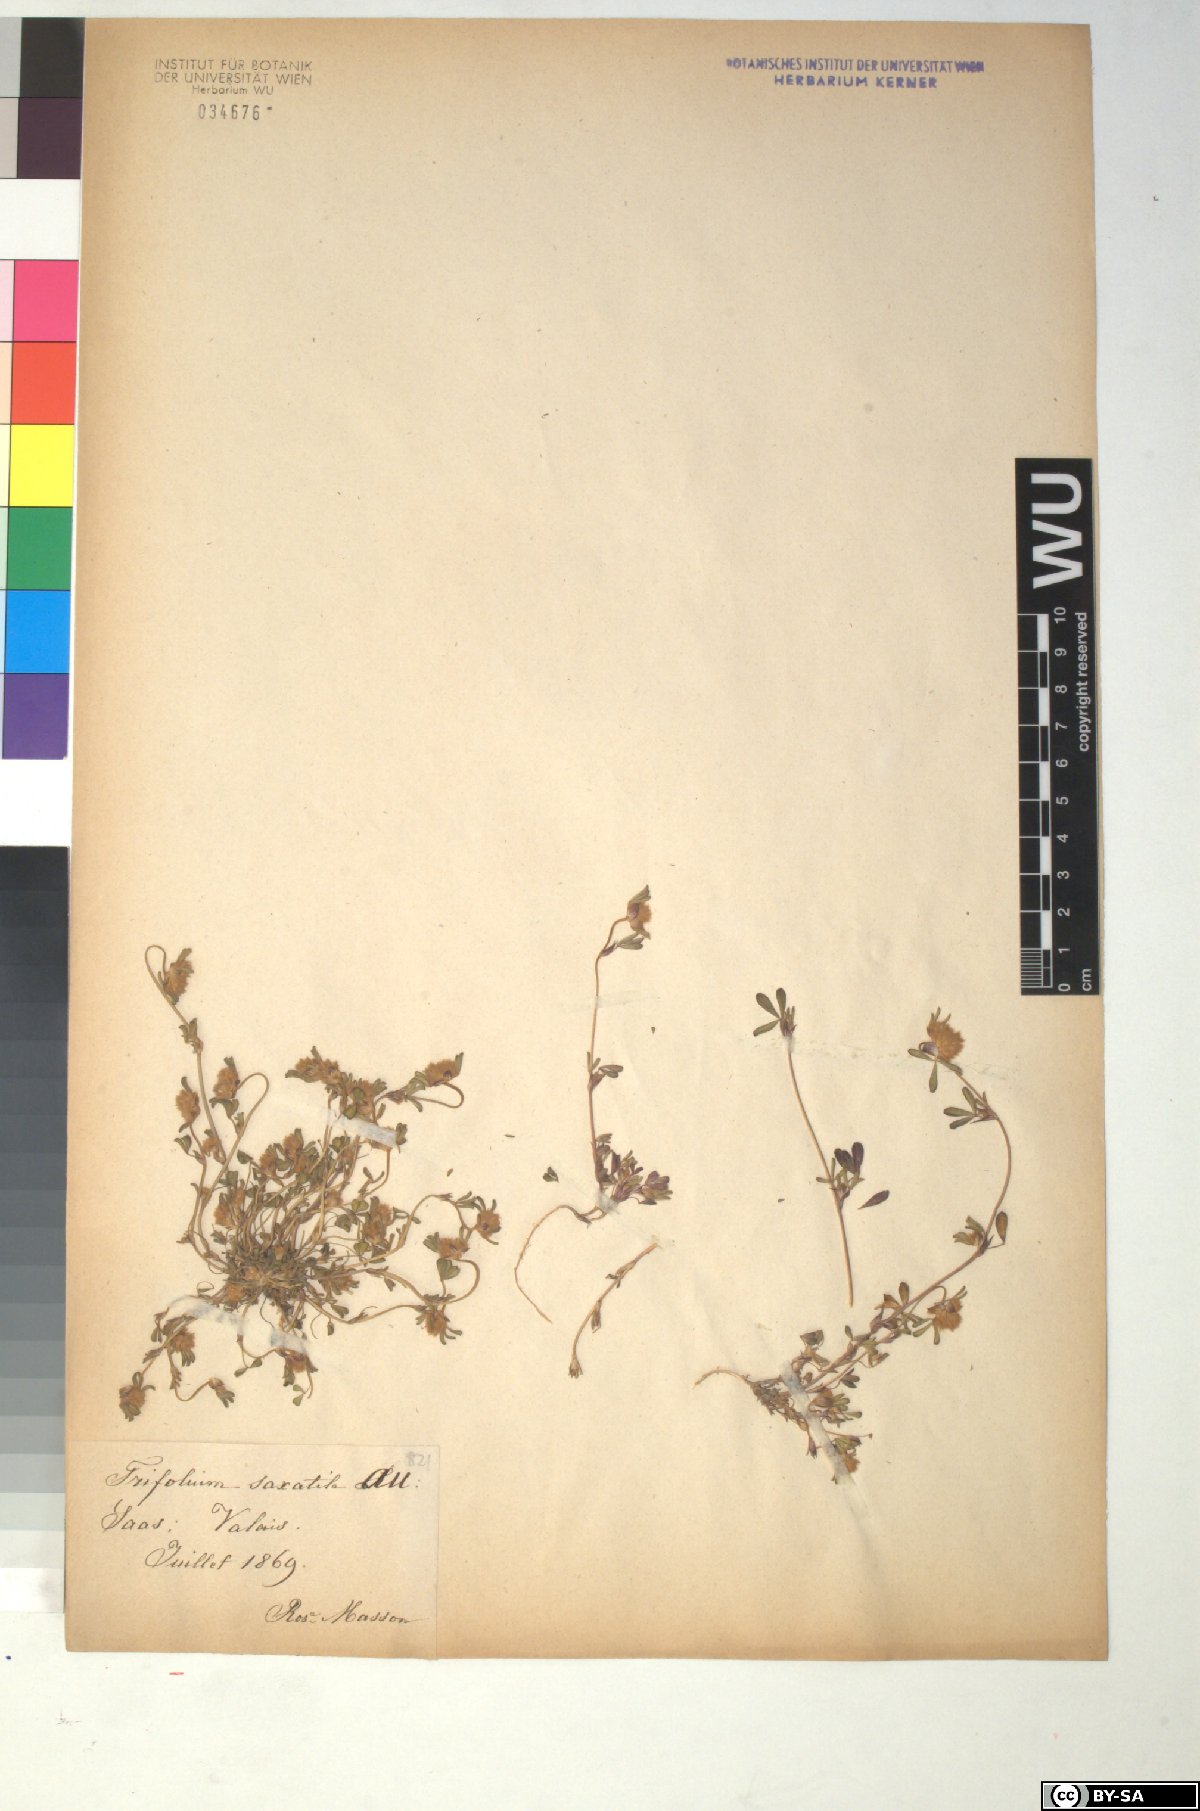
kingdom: Plantae
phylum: Tracheophyta
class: Magnoliopsida
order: Fabales
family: Fabaceae
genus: Trifolium
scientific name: Trifolium saxatile
